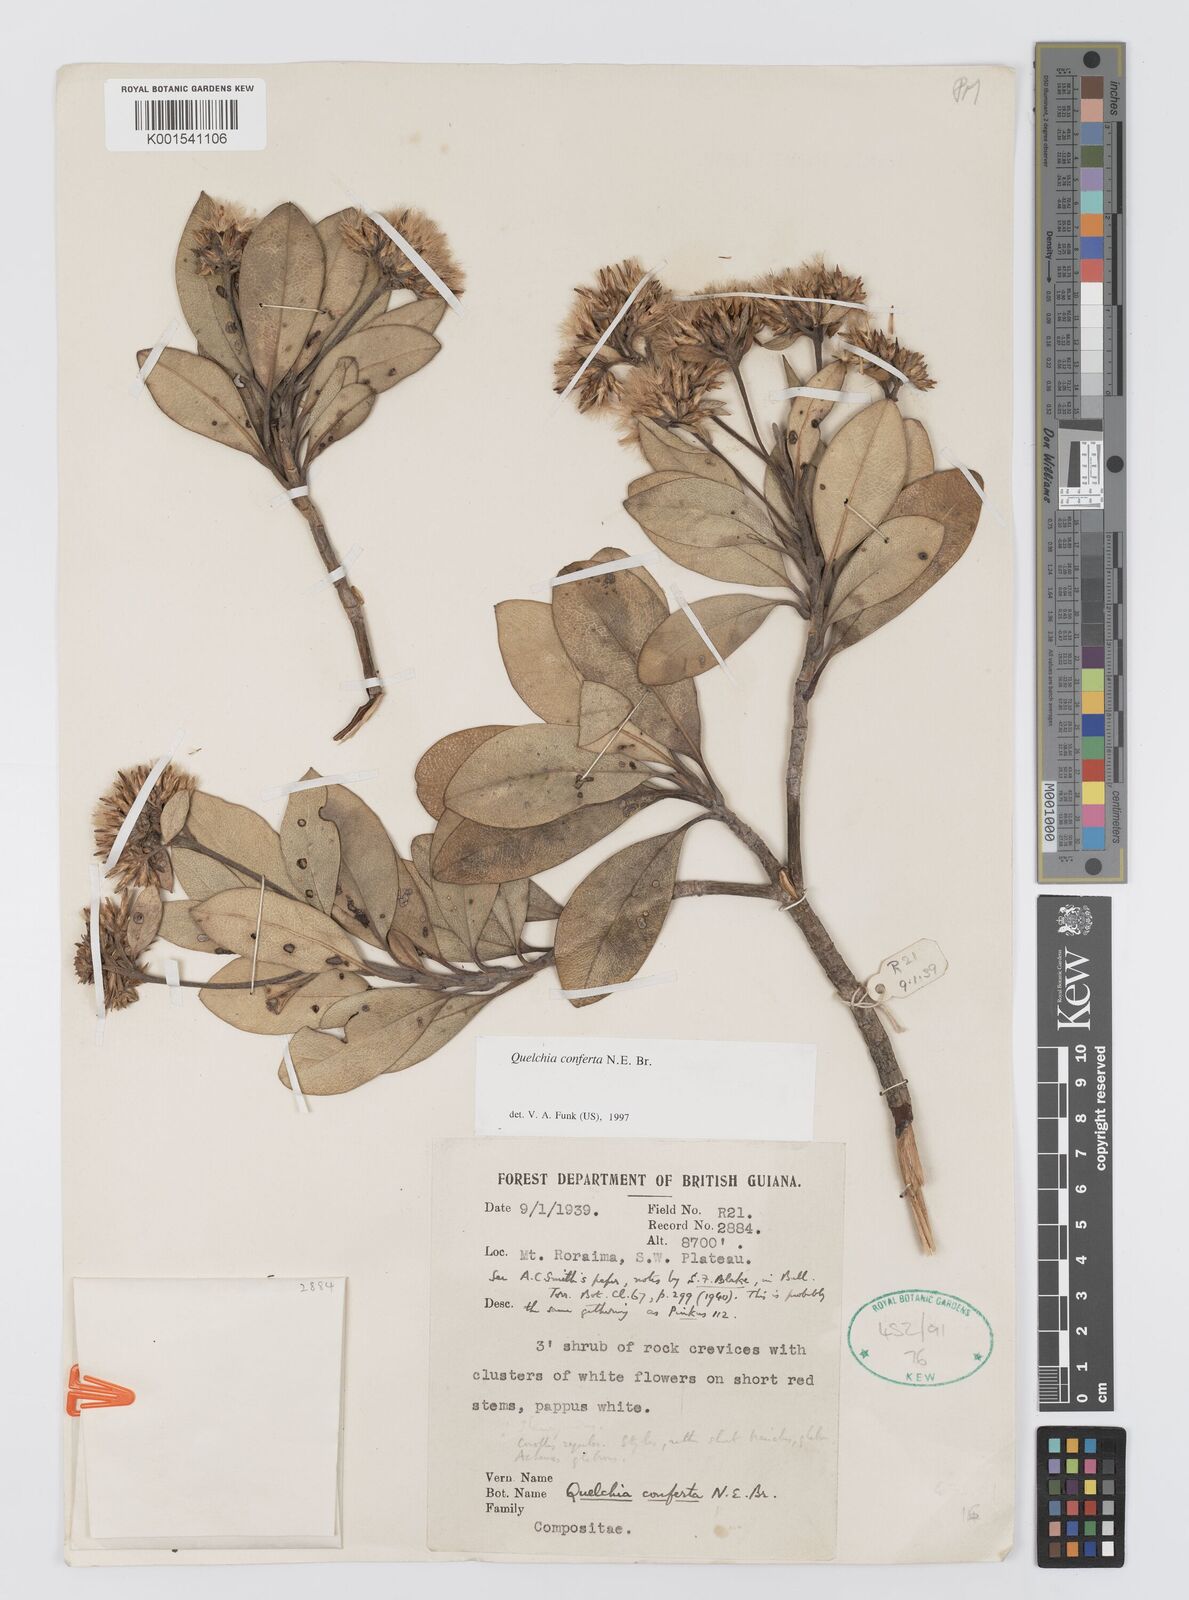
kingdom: Plantae
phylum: Tracheophyta
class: Magnoliopsida
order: Asterales
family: Asteraceae
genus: Stenopadus
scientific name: Stenopadus jauensis
